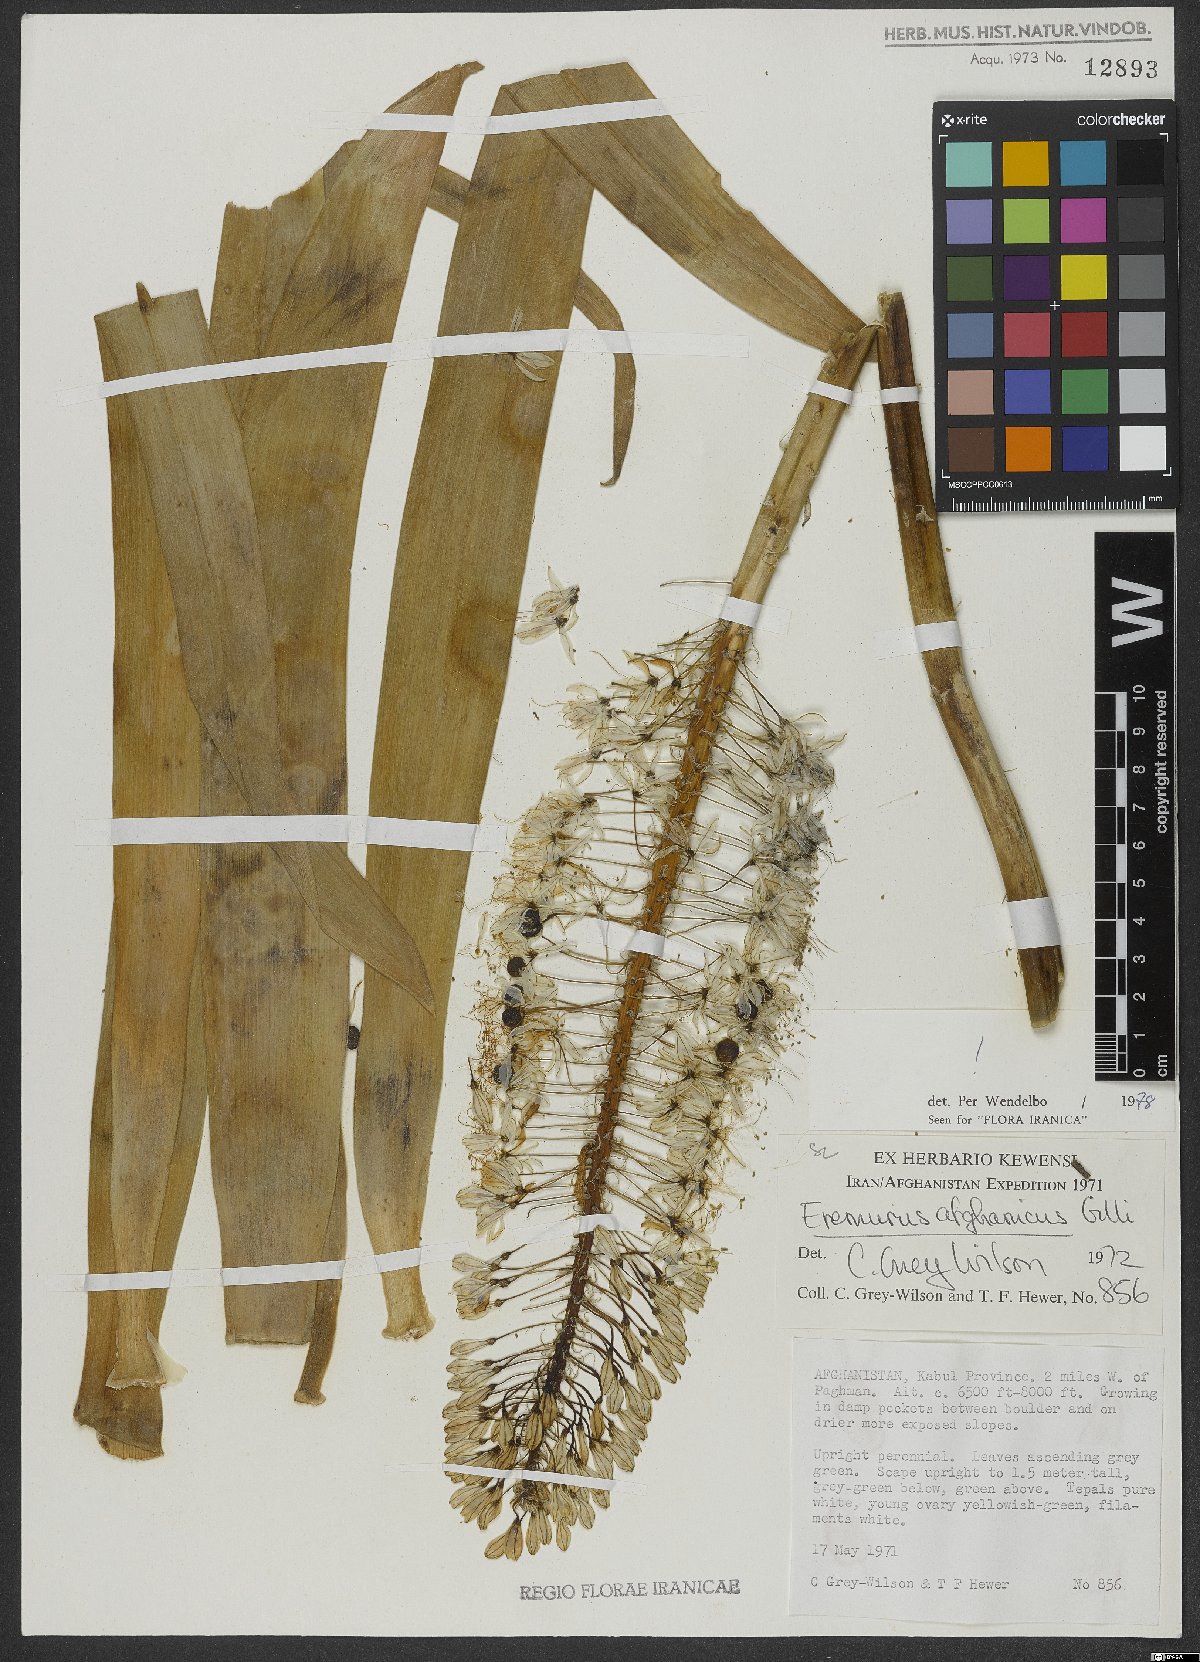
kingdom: Plantae
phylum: Tracheophyta
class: Liliopsida
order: Asparagales
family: Asphodelaceae
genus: Eremurus
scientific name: Eremurus afghanicus
